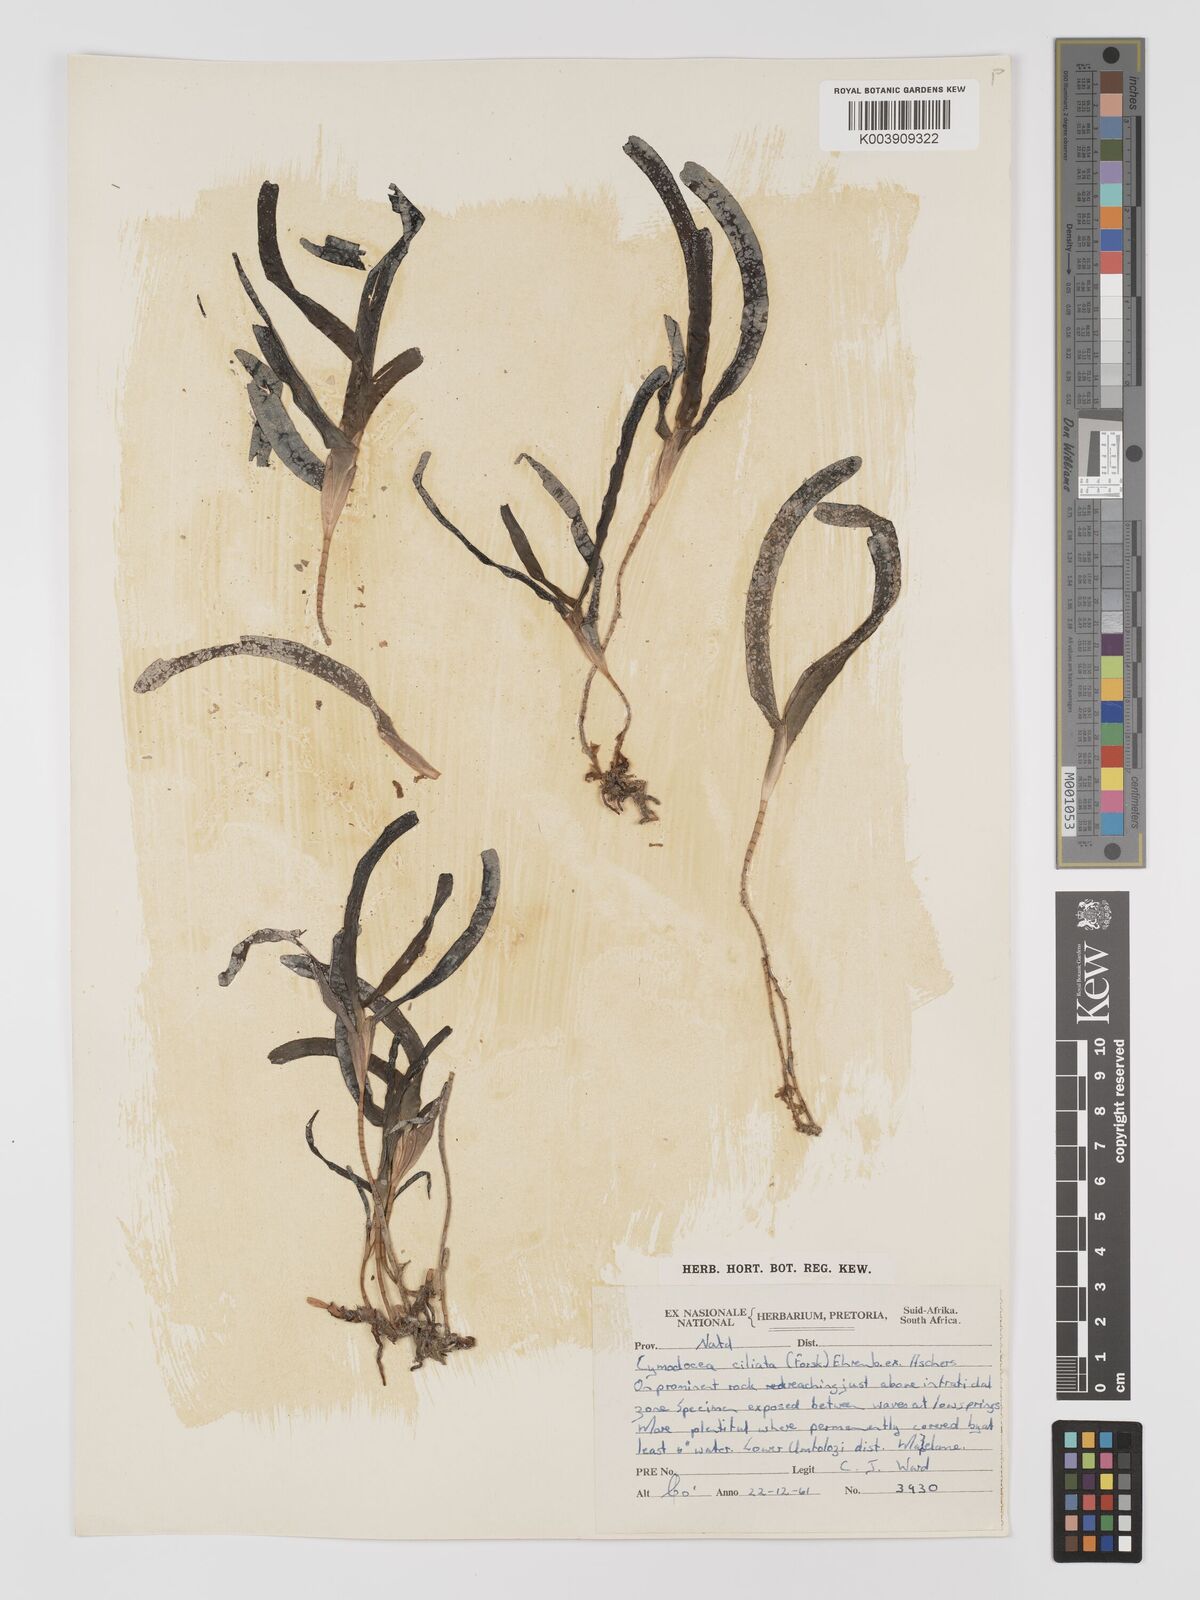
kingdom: Plantae
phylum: Tracheophyta
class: Liliopsida
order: Alismatales
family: Cymodoceaceae
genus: Thalassodendron
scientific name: Thalassodendron ciliatum
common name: Species code: tc
